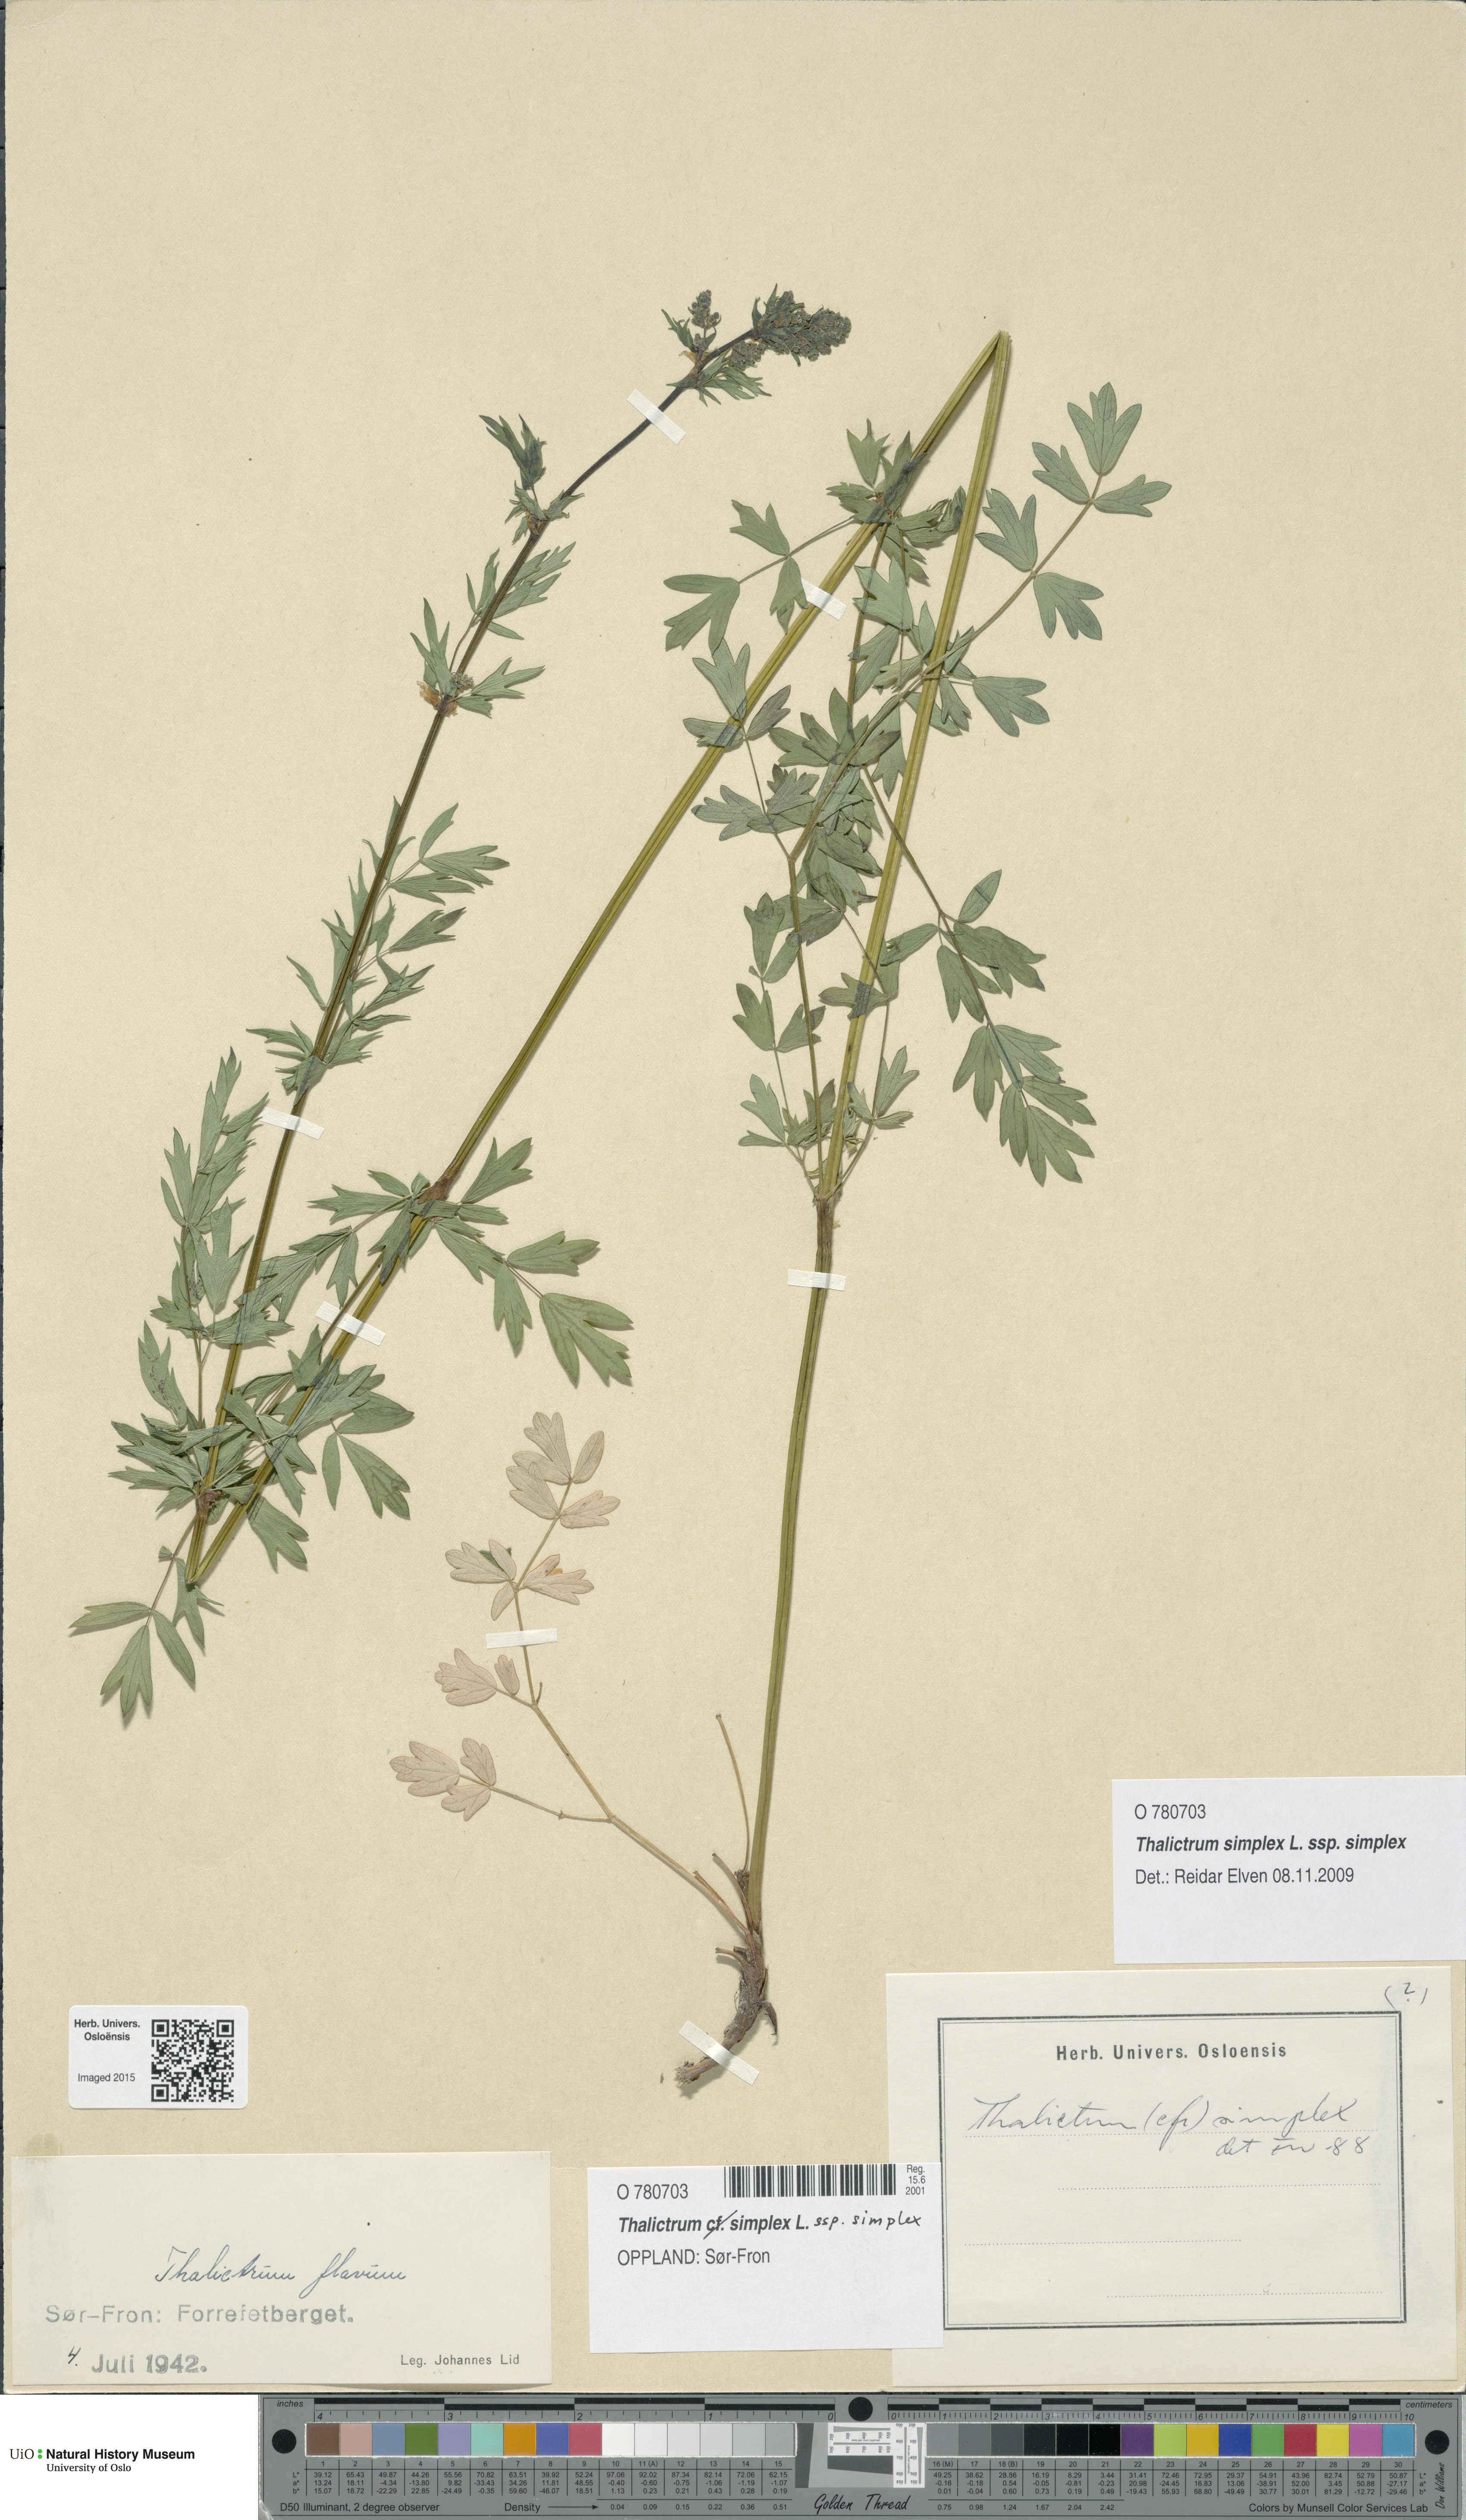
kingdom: Plantae
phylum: Tracheophyta
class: Magnoliopsida
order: Ranunculales
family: Ranunculaceae
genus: Thalictrum
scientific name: Thalictrum simplex
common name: Small meadow-rue
